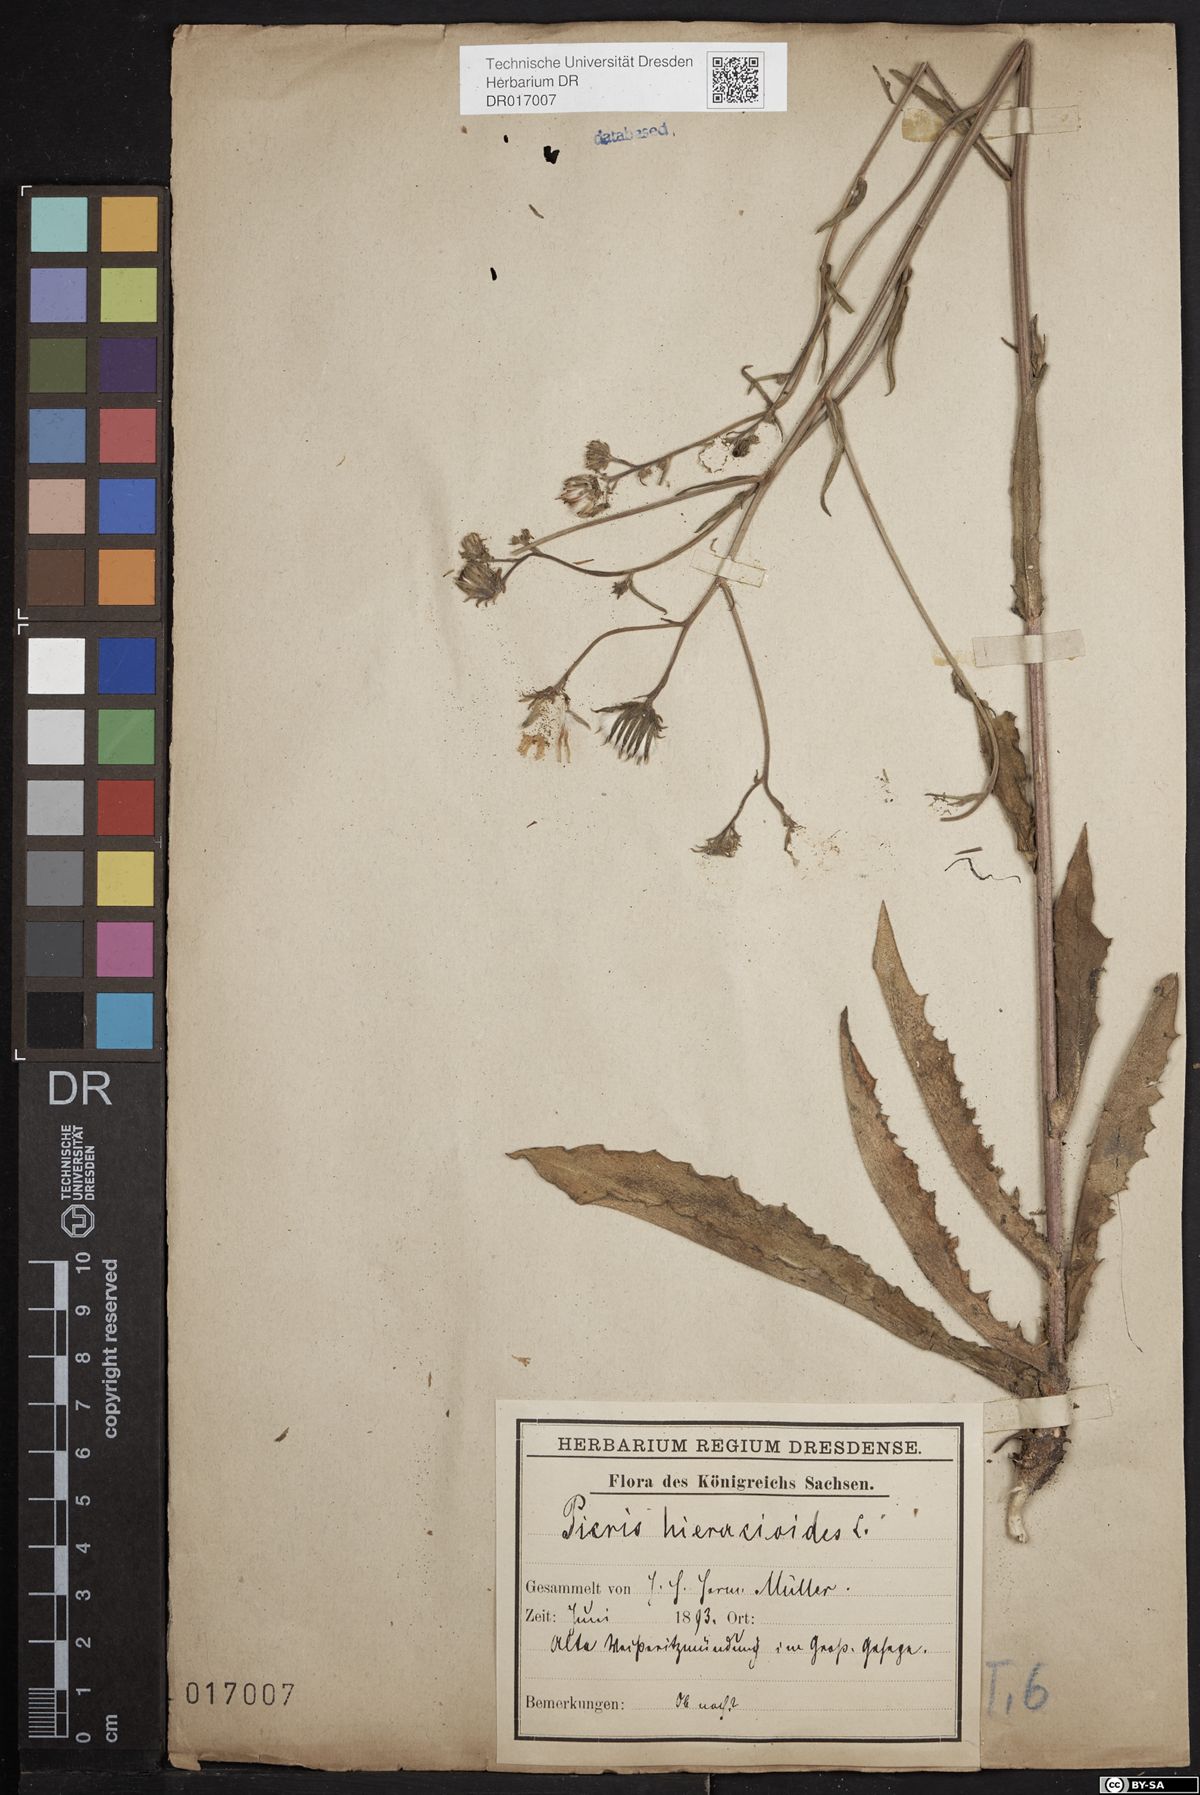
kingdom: Plantae
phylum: Tracheophyta
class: Magnoliopsida
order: Asterales
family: Asteraceae
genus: Picris
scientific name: Picris hieracioides
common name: Hawkweed oxtongue
